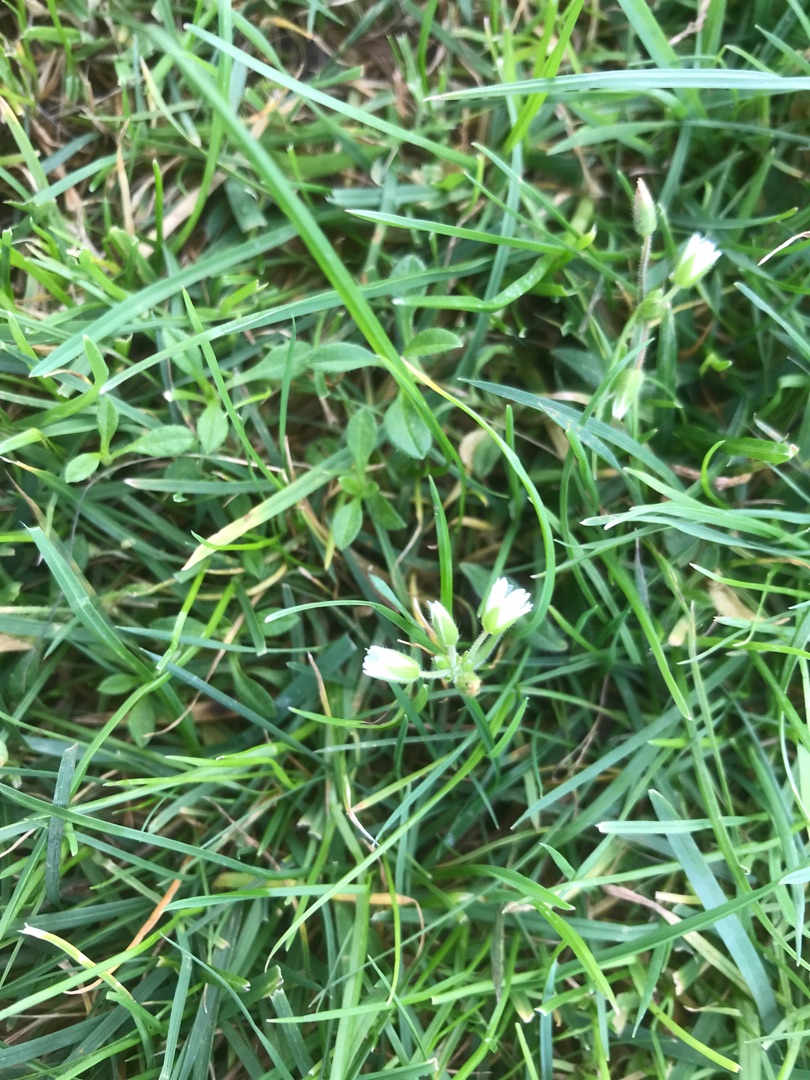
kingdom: Plantae
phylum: Tracheophyta
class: Magnoliopsida
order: Caryophyllales
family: Caryophyllaceae
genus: Cerastium
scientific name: Cerastium fontanum
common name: Almindelig hønsetarm
